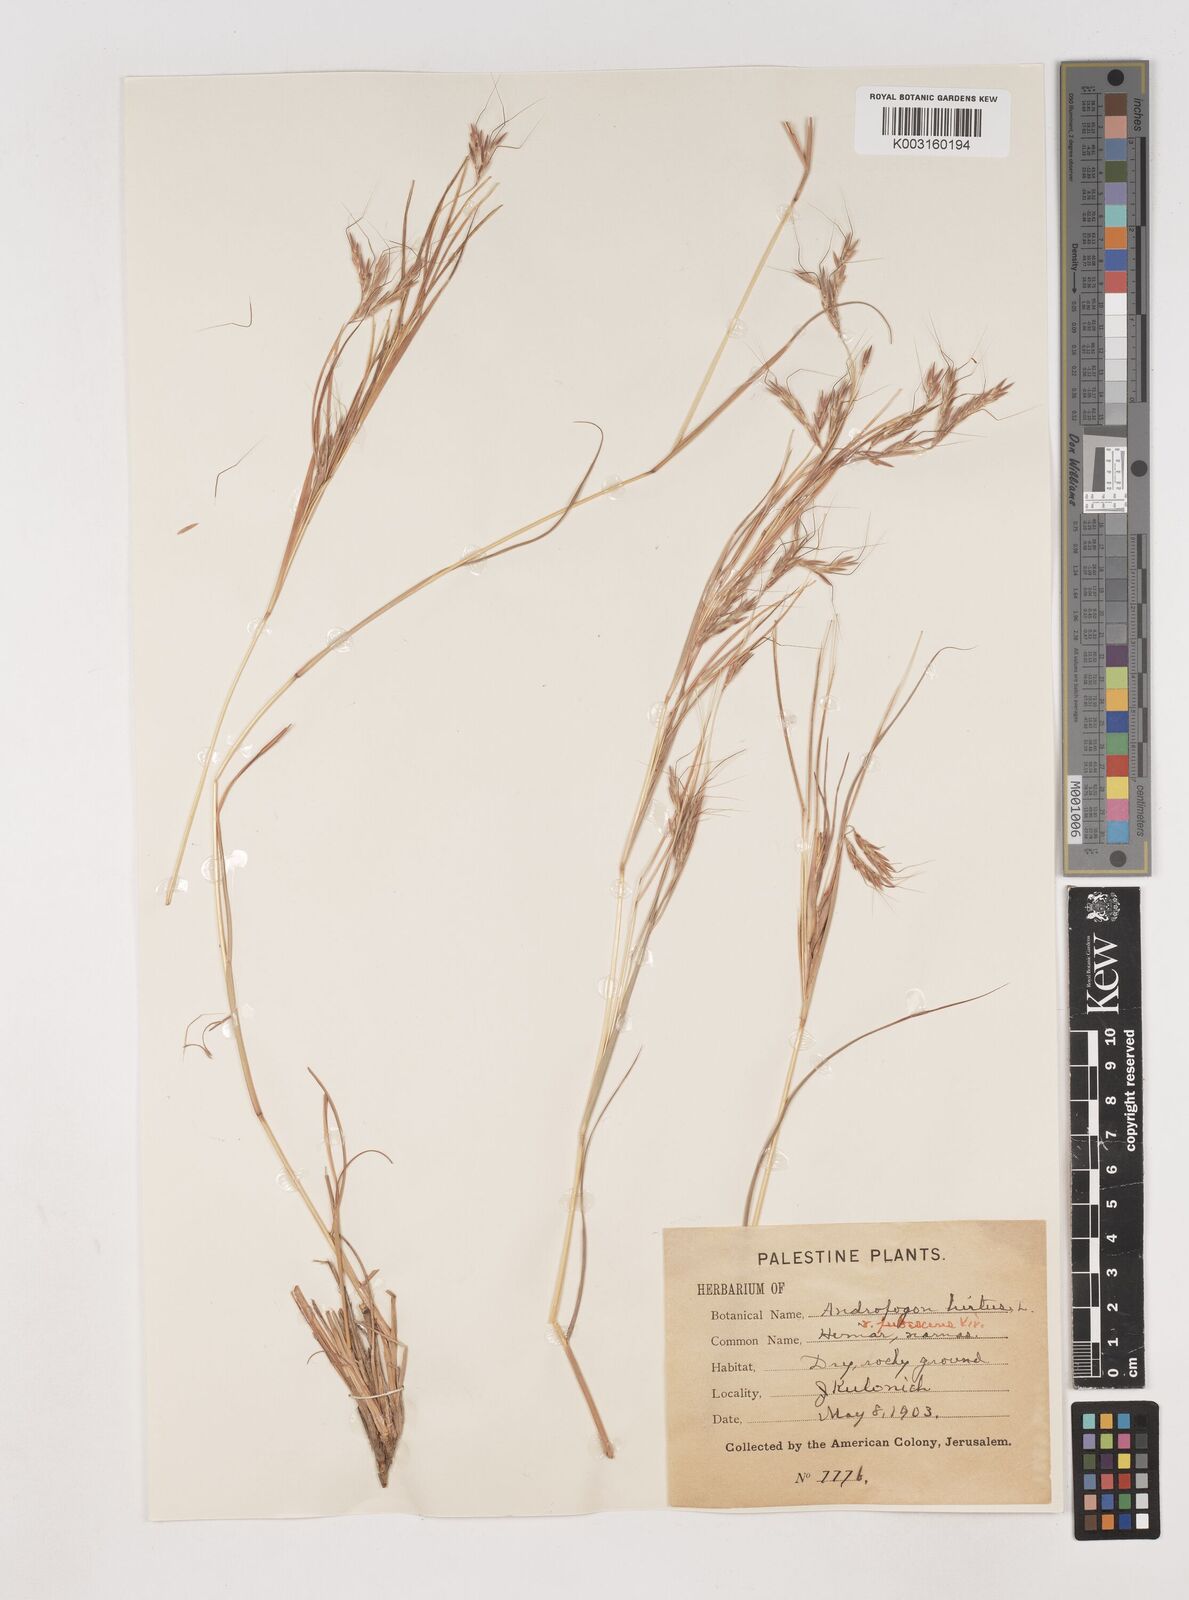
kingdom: Plantae
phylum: Tracheophyta
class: Liliopsida
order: Poales
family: Poaceae
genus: Hyparrhenia
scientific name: Hyparrhenia hirta
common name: Thatching grass
